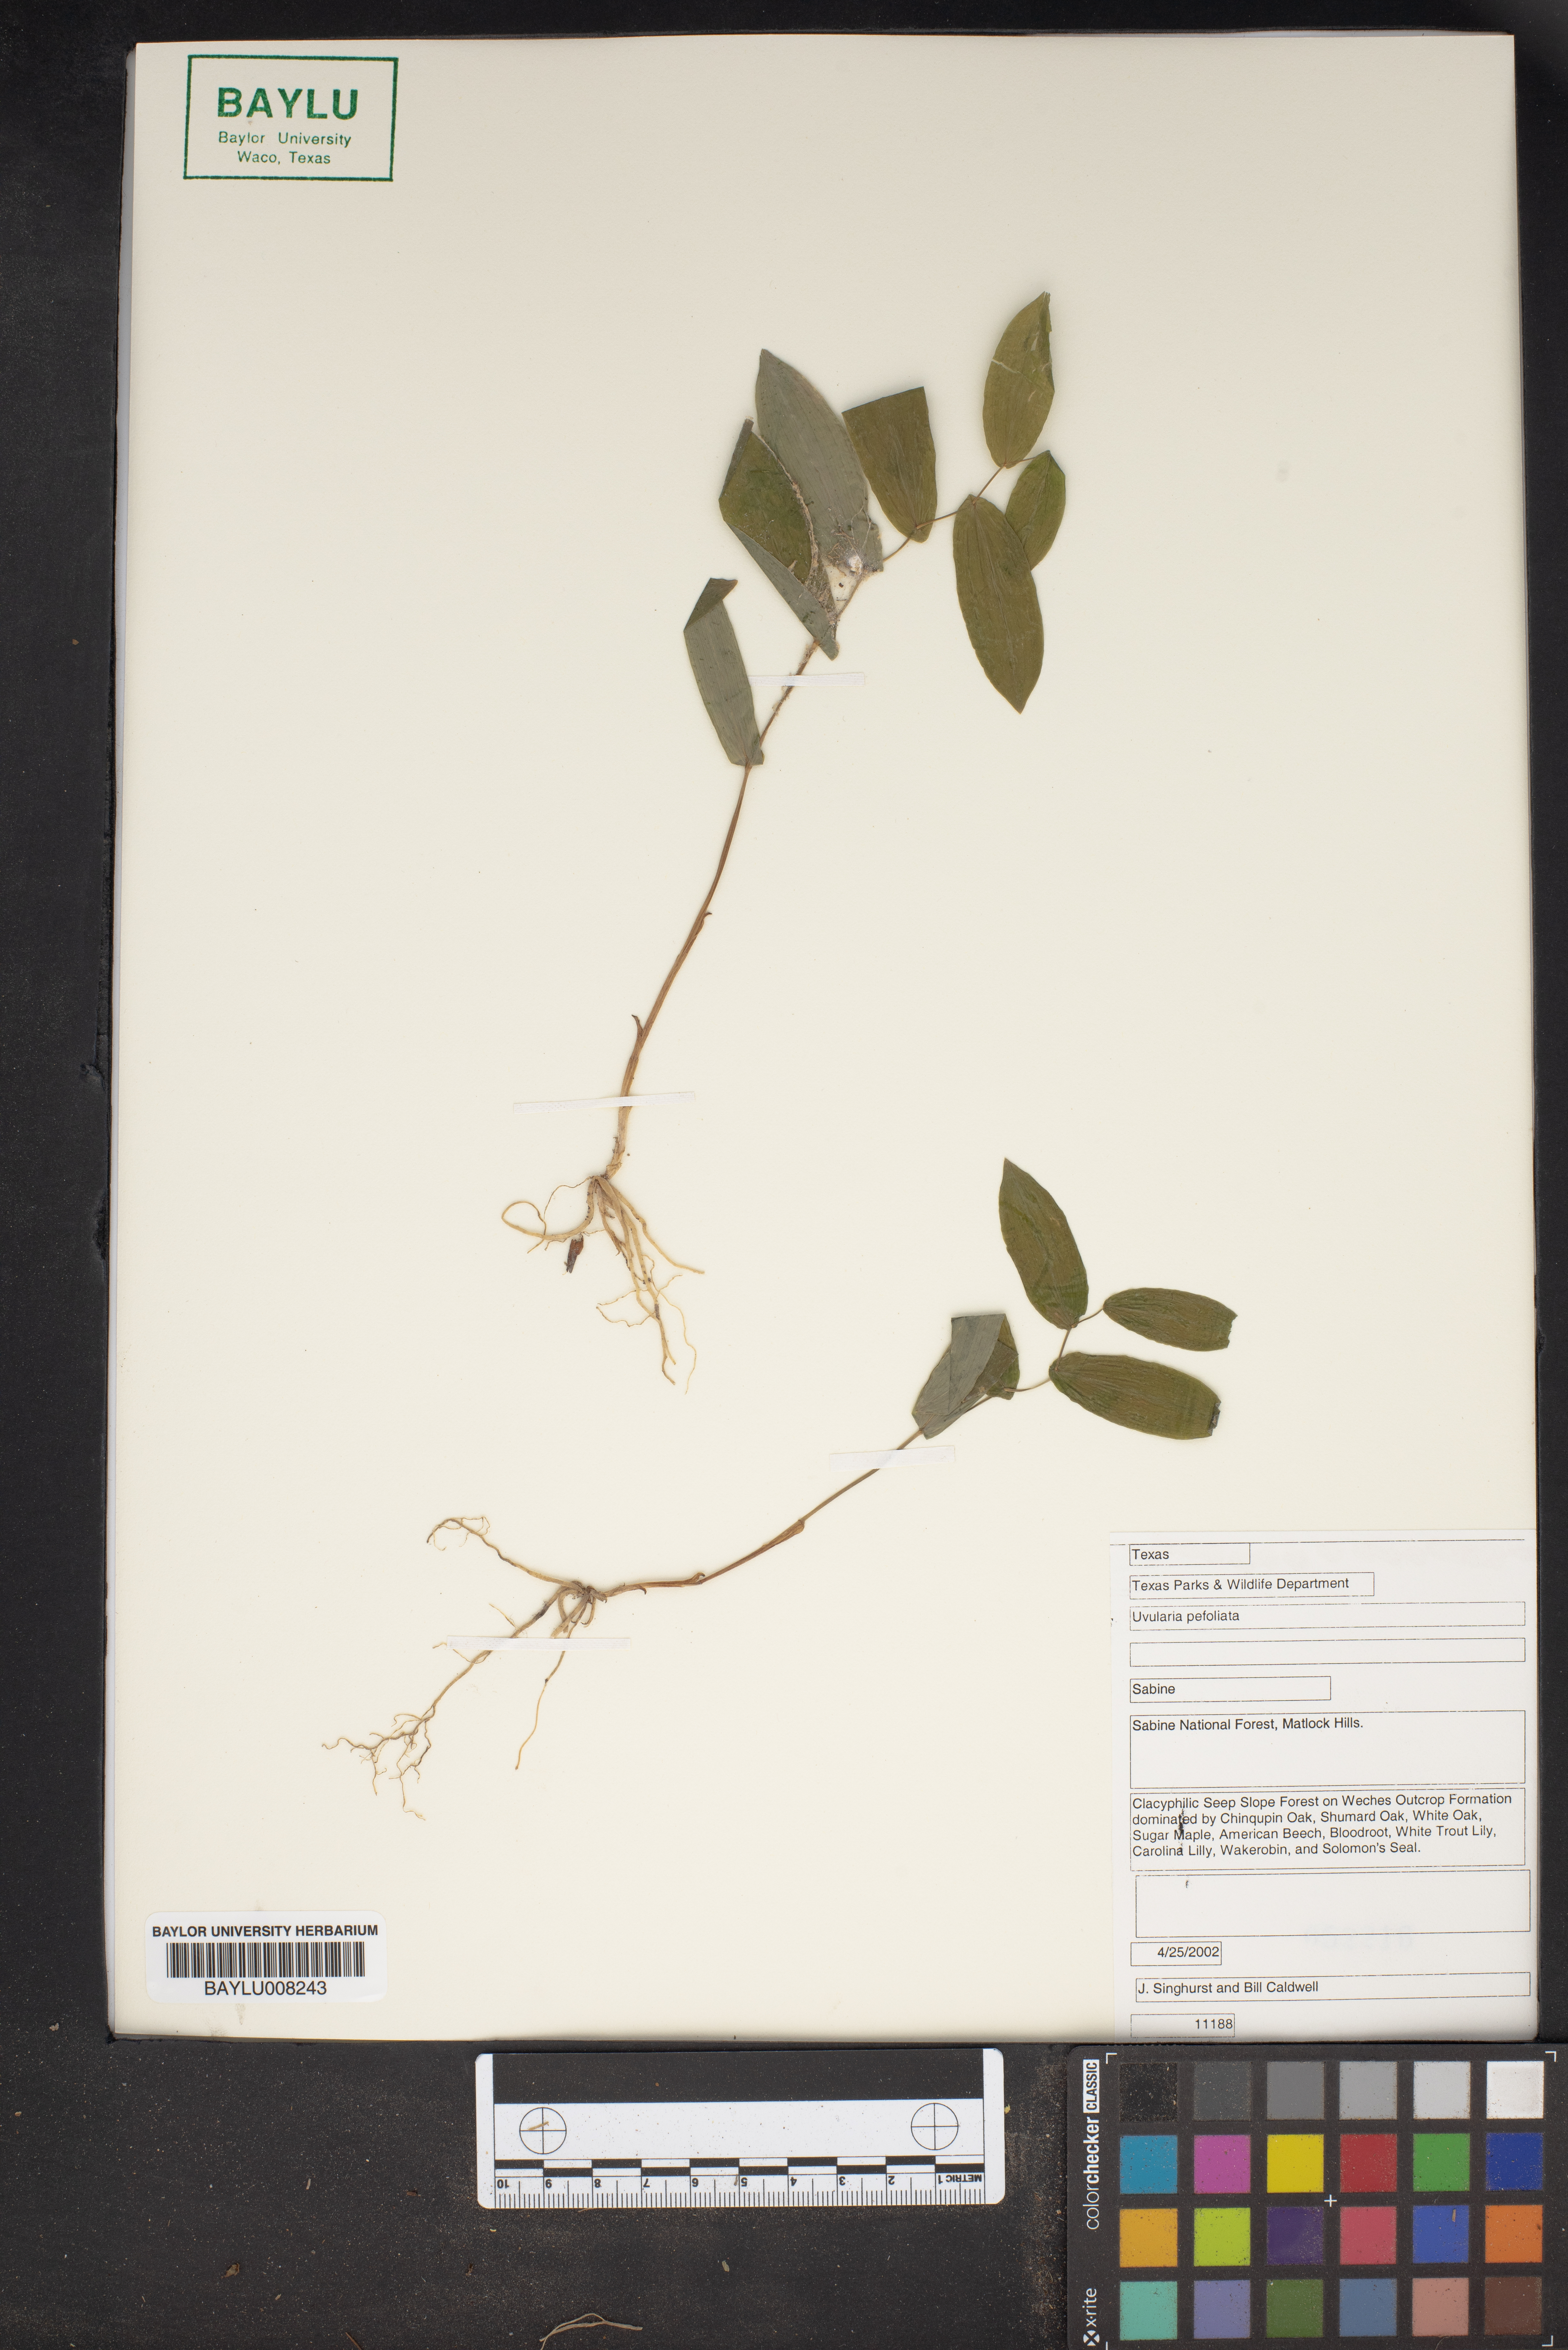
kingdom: Plantae
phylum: Tracheophyta
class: Liliopsida
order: Liliales
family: Colchicaceae
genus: Uvularia
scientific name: Uvularia perfoliata
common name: Perfoliate bellwort
